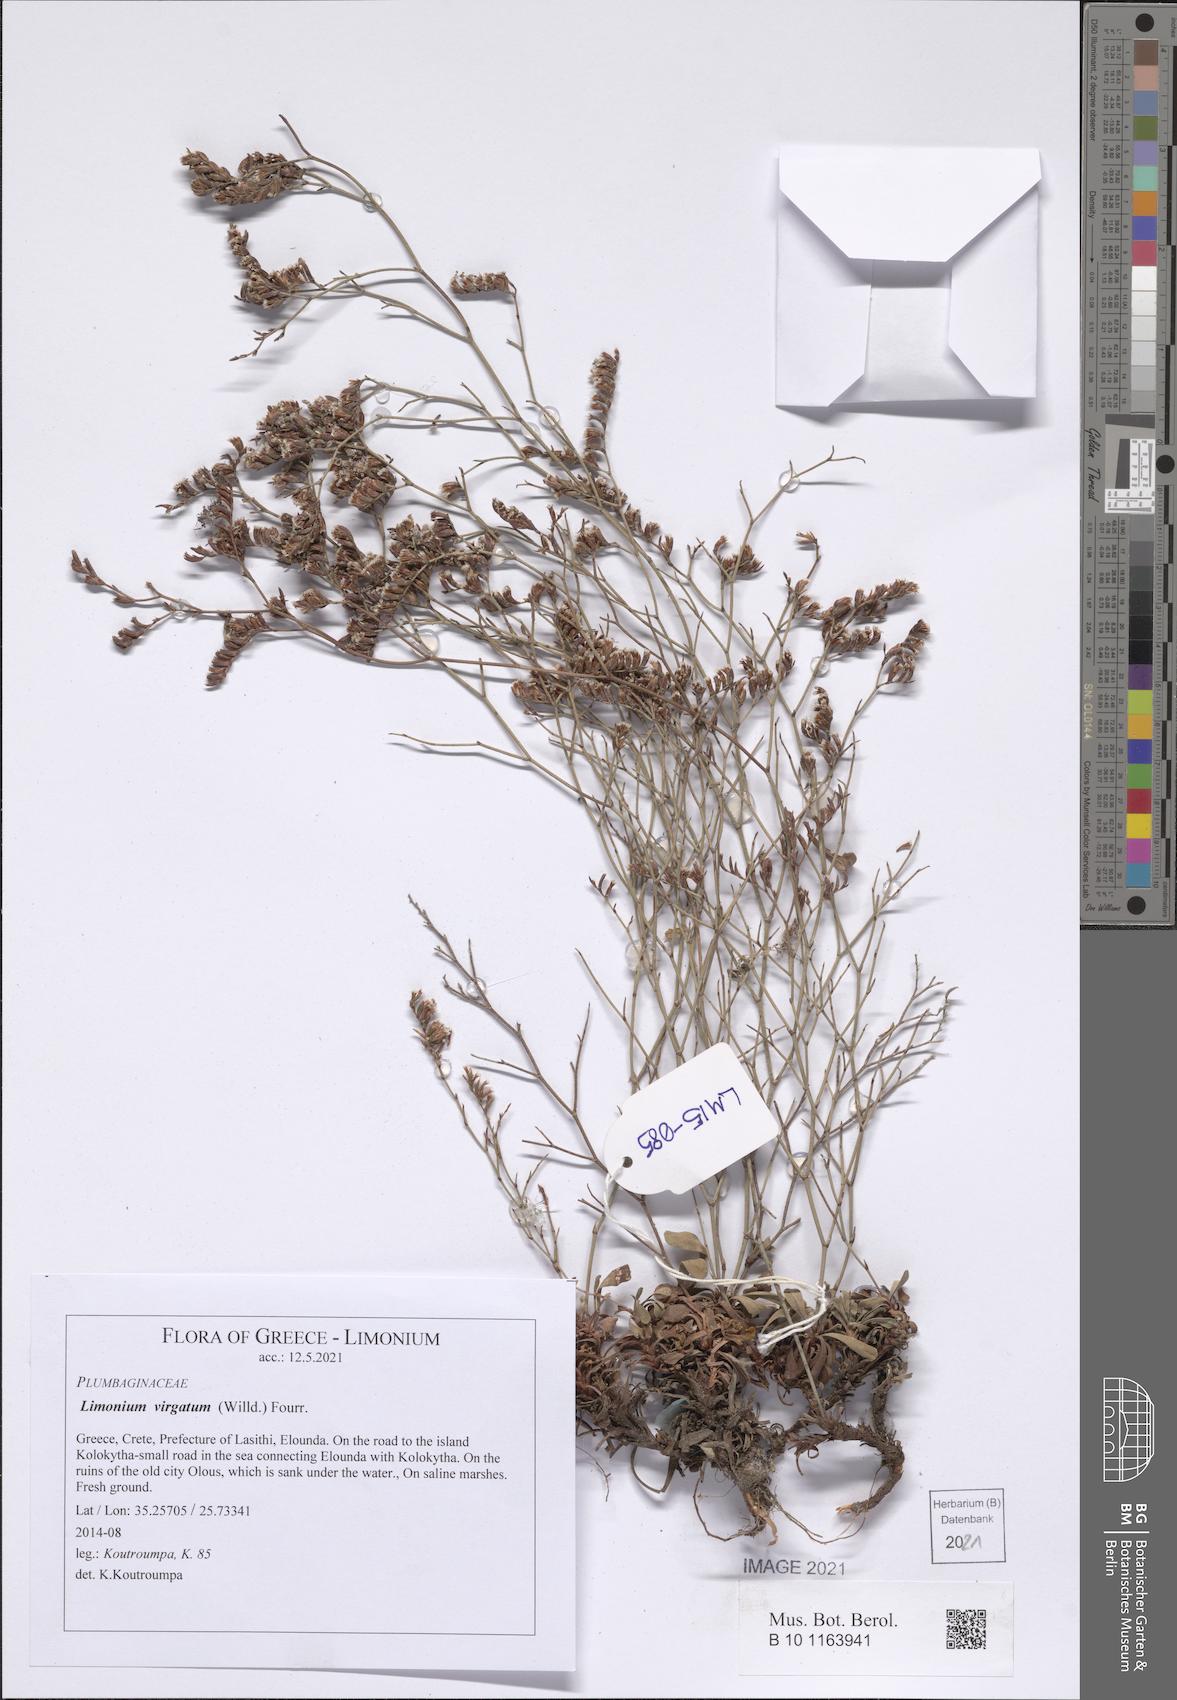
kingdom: Plantae
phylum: Tracheophyta
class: Magnoliopsida
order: Caryophyllales
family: Plumbaginaceae
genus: Limonium
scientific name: Limonium virgatum
